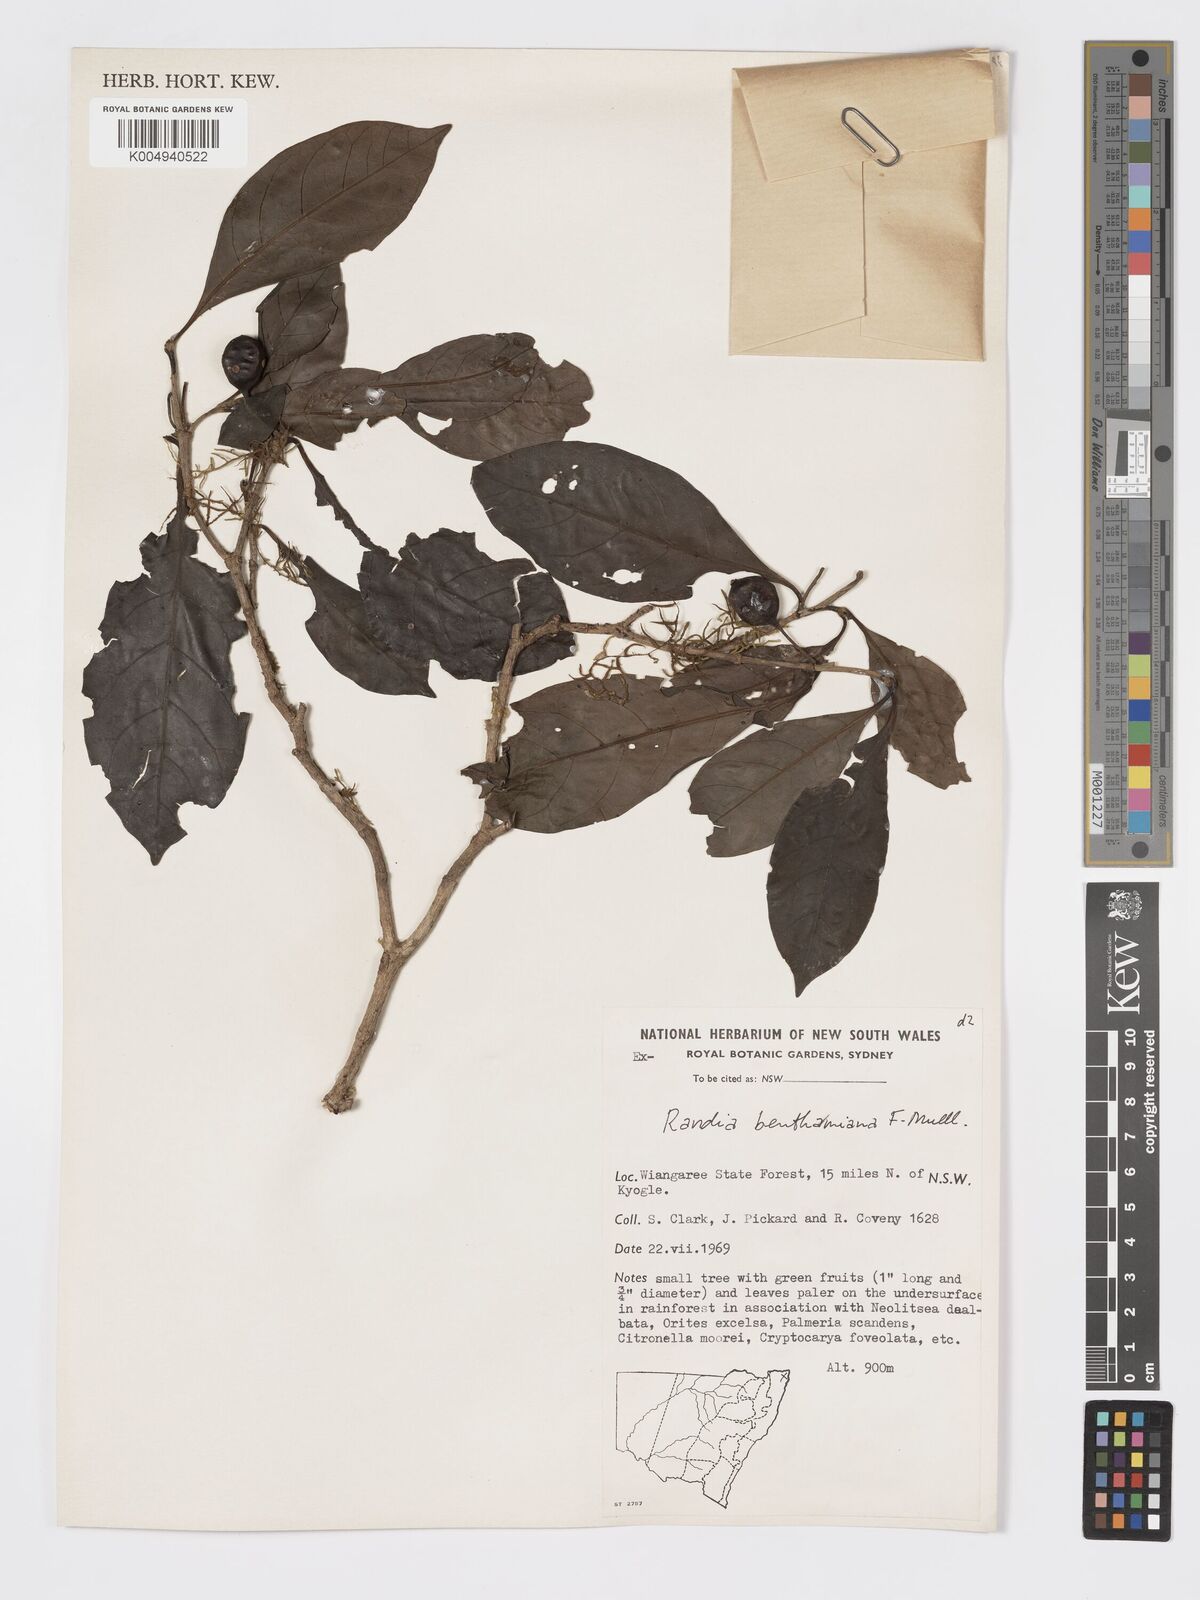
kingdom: Plantae
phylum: Tracheophyta
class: Magnoliopsida
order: Gentianales
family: Rubiaceae
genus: Atractocarpus
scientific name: Atractocarpus benthamianus
